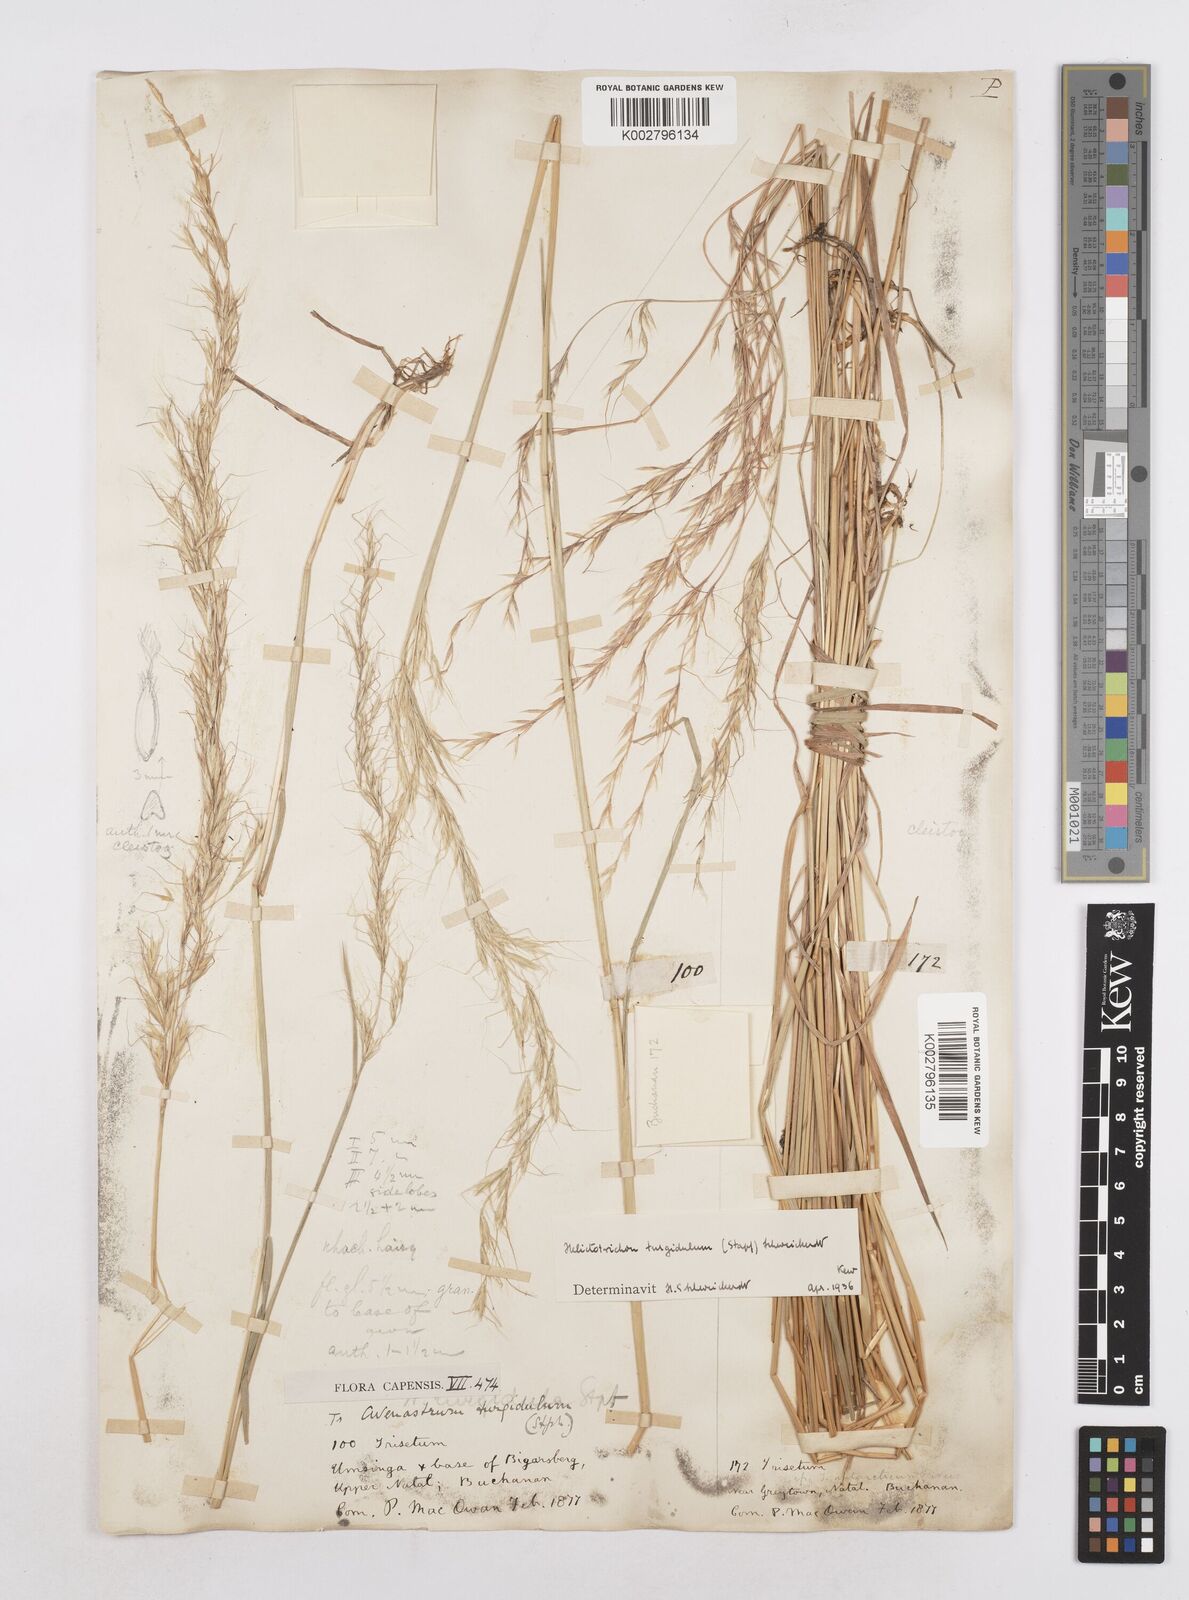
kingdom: Plantae
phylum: Tracheophyta
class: Liliopsida
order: Poales
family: Poaceae
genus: Trisetopsis
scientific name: Trisetopsis imberbis
